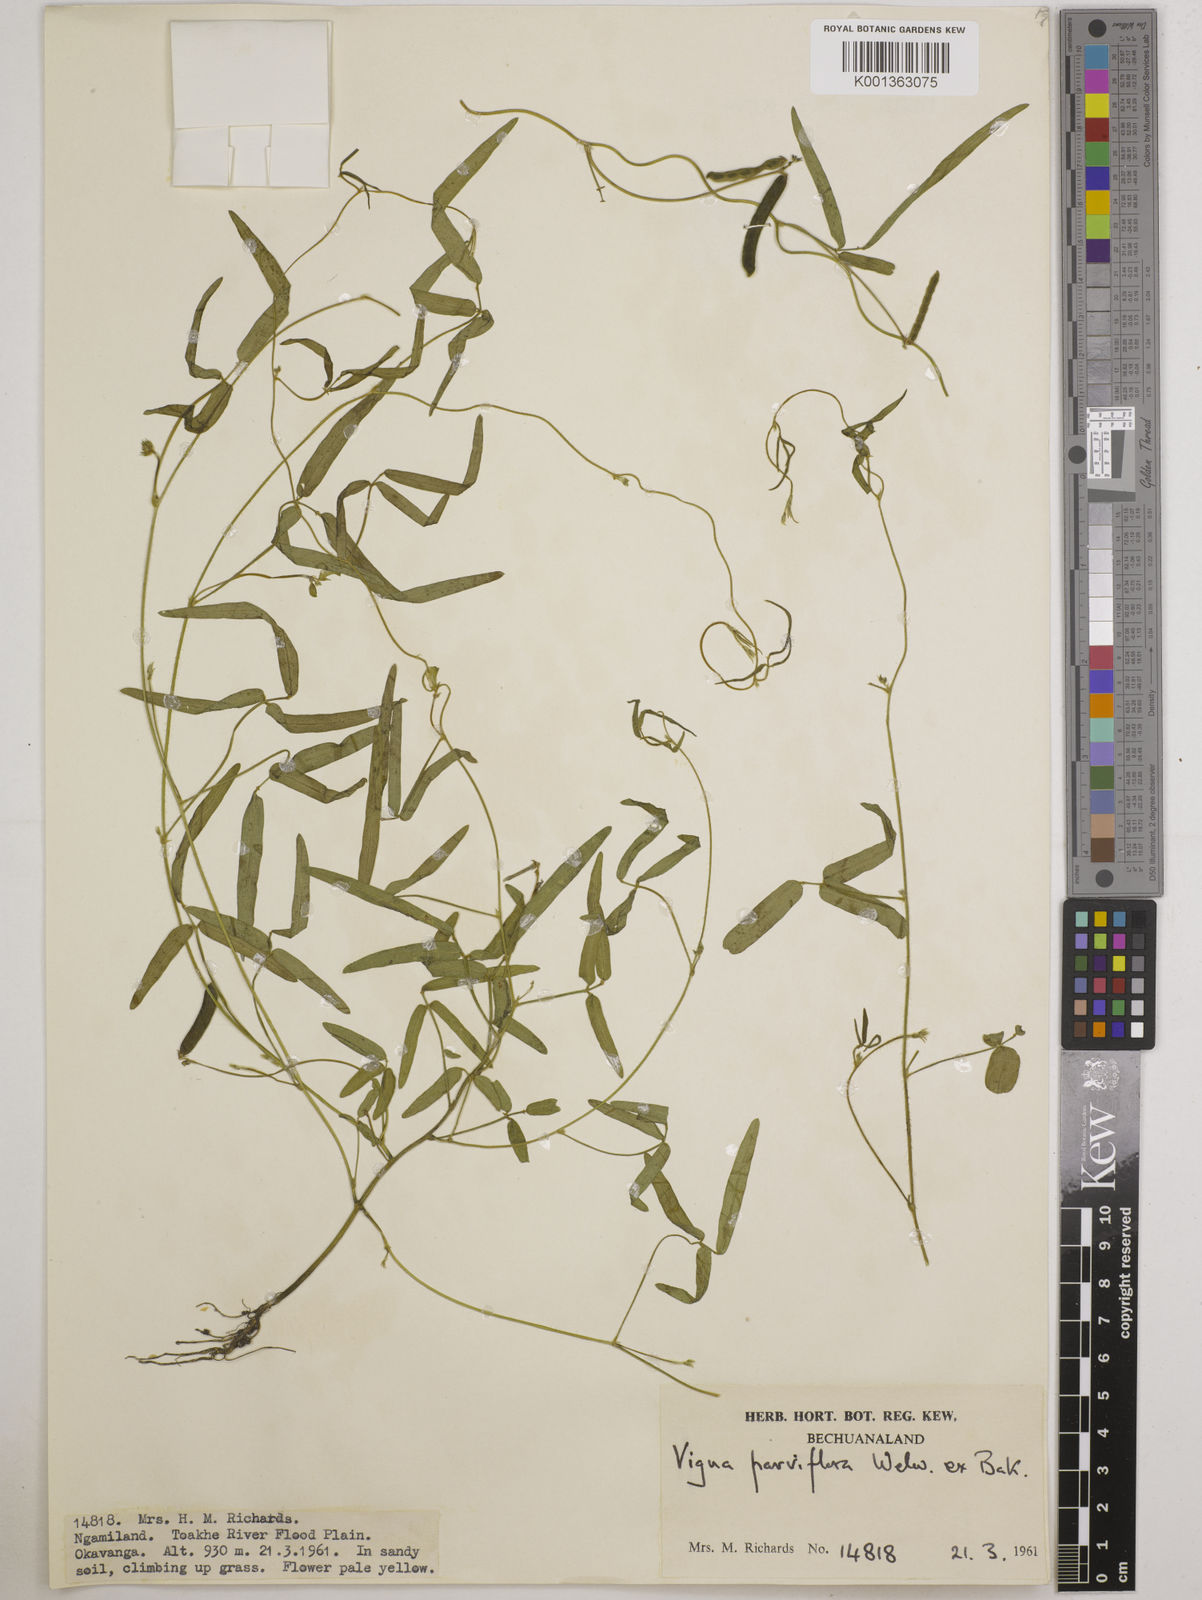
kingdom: Plantae
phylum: Tracheophyta
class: Magnoliopsida
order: Fabales
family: Fabaceae
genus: Vigna
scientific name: Vigna
